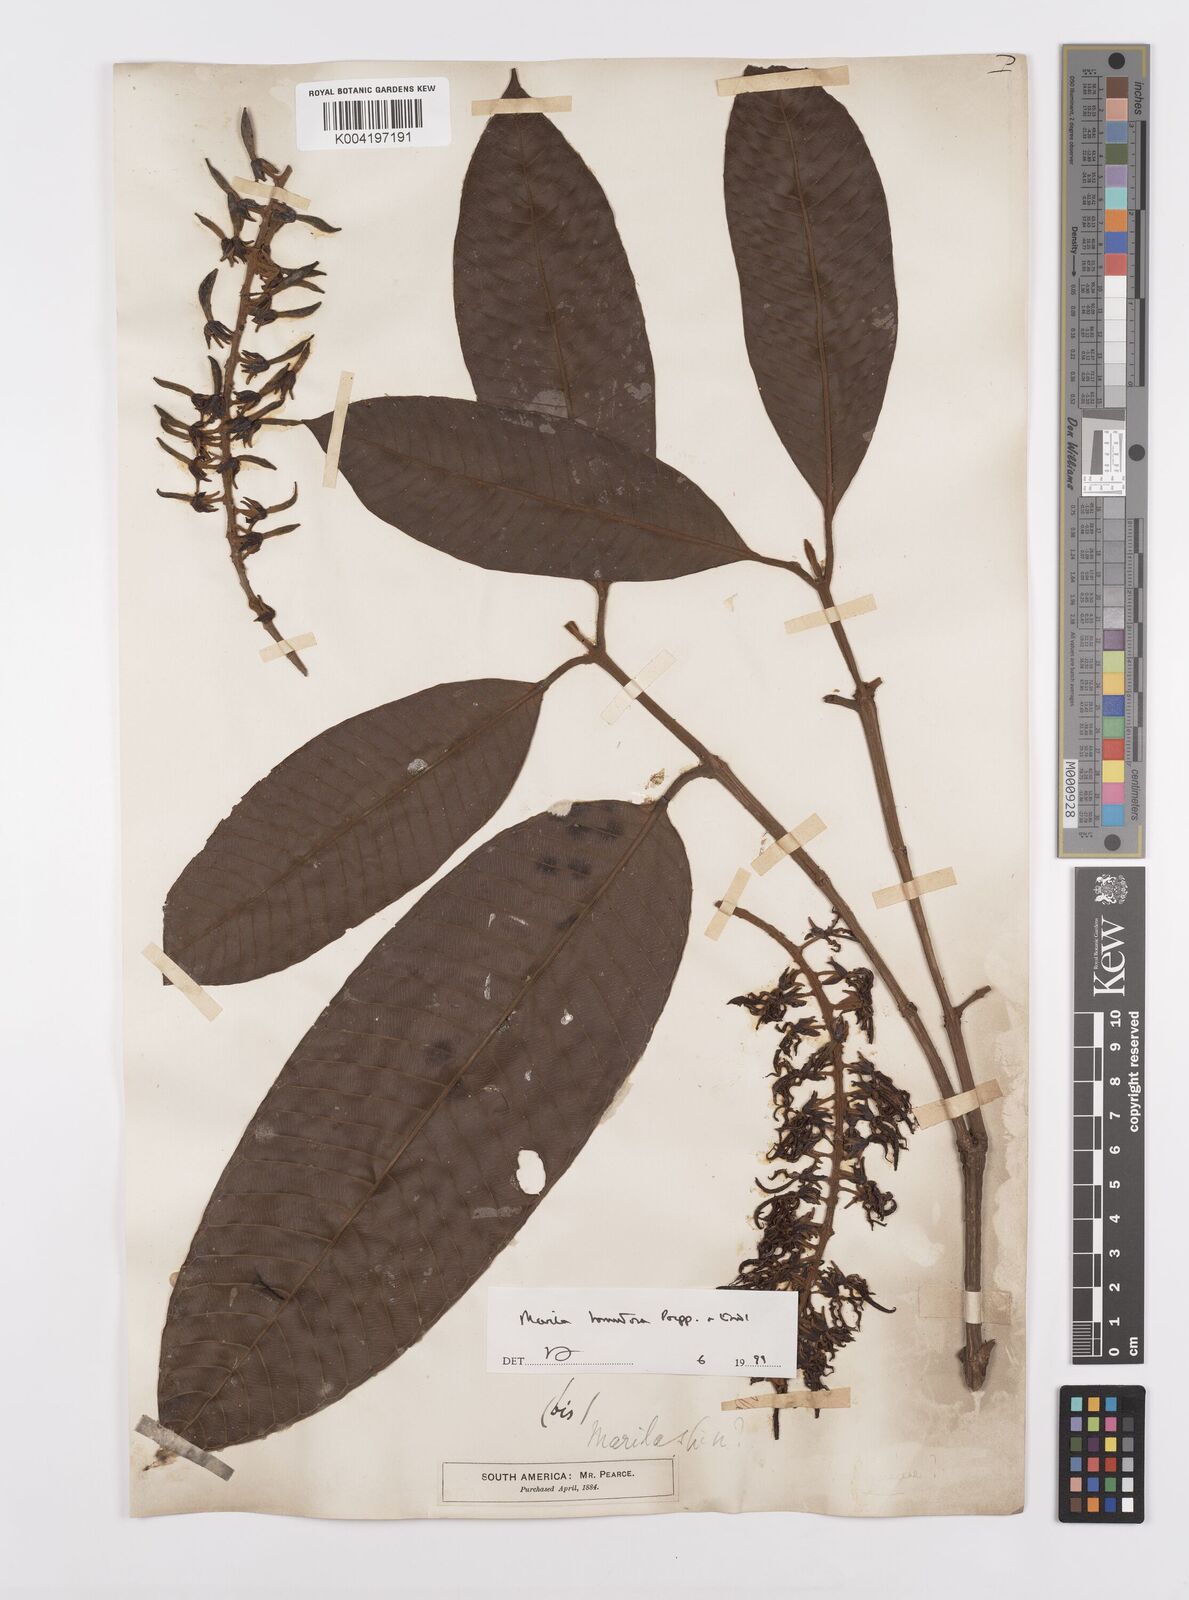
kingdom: Plantae
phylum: Tracheophyta
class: Magnoliopsida
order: Malpighiales
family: Calophyllaceae
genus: Marila
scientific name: Marila tomentosa
